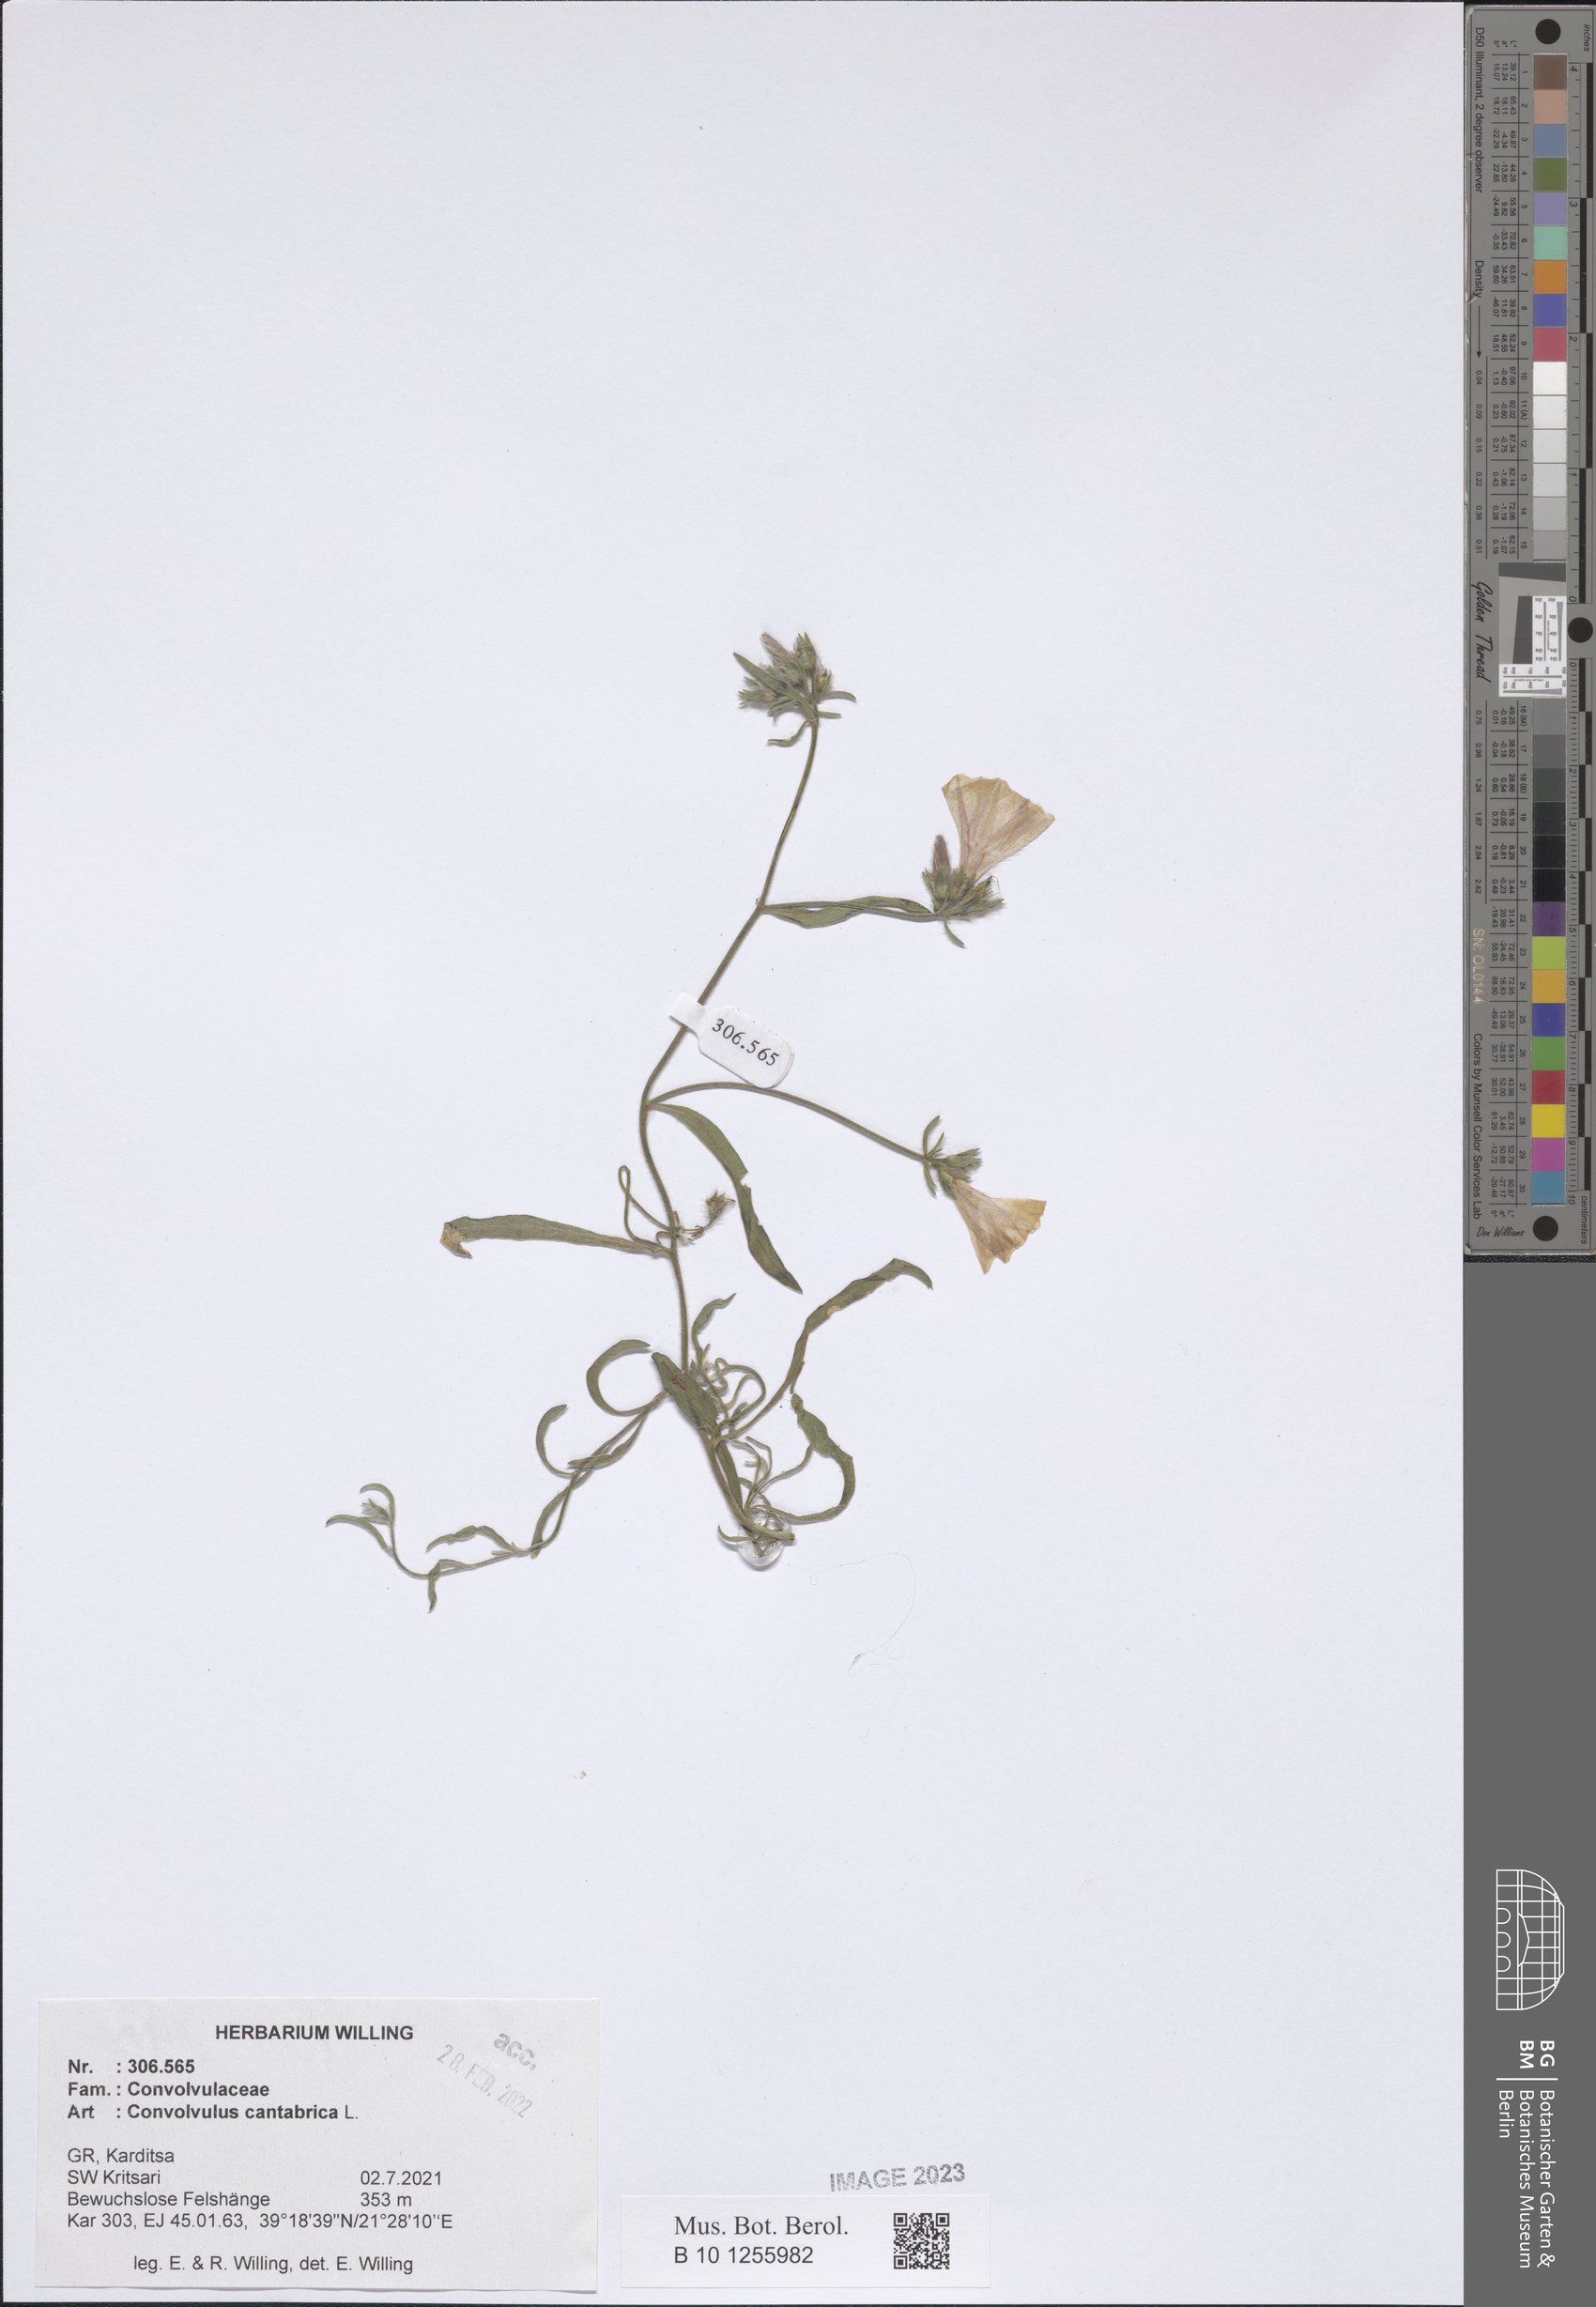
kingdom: Plantae
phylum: Tracheophyta
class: Magnoliopsida
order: Solanales
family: Convolvulaceae
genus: Convolvulus
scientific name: Convolvulus cantabrica
